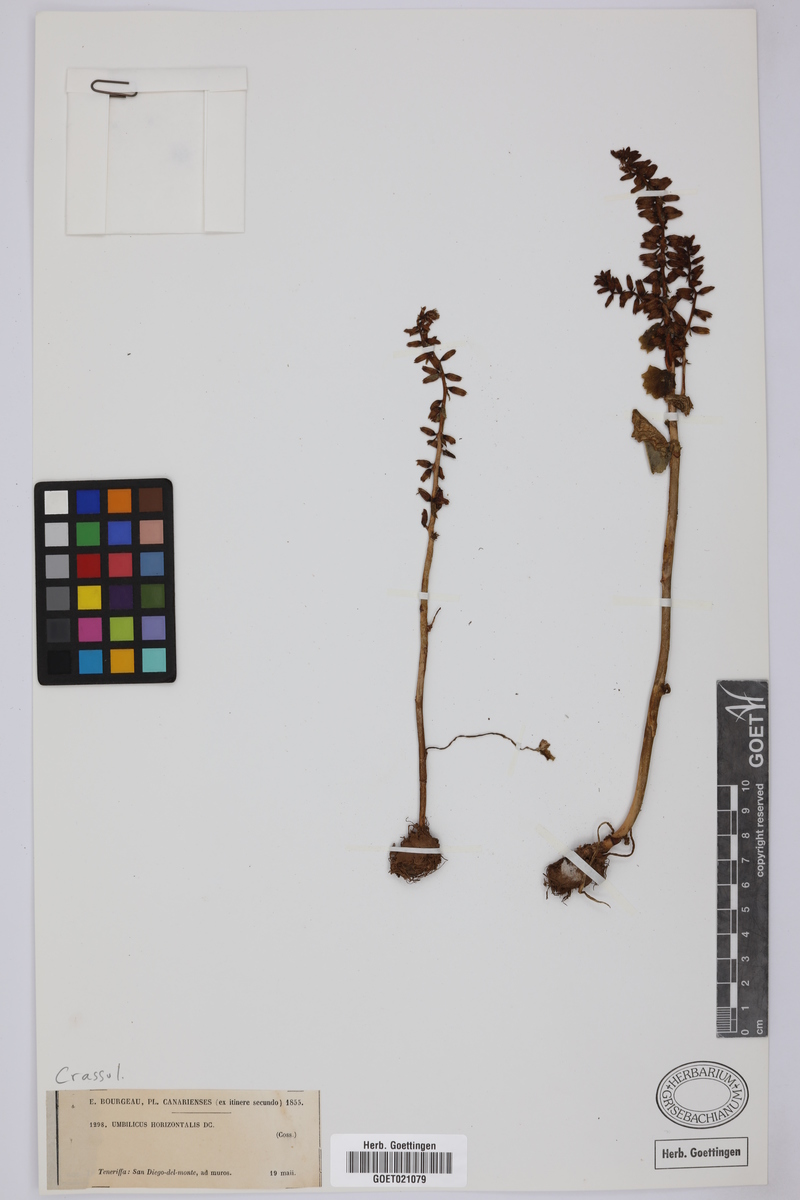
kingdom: Plantae
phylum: Tracheophyta
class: Magnoliopsida
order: Saxifragales
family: Crassulaceae
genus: Umbilicus
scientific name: Umbilicus horizontalis
